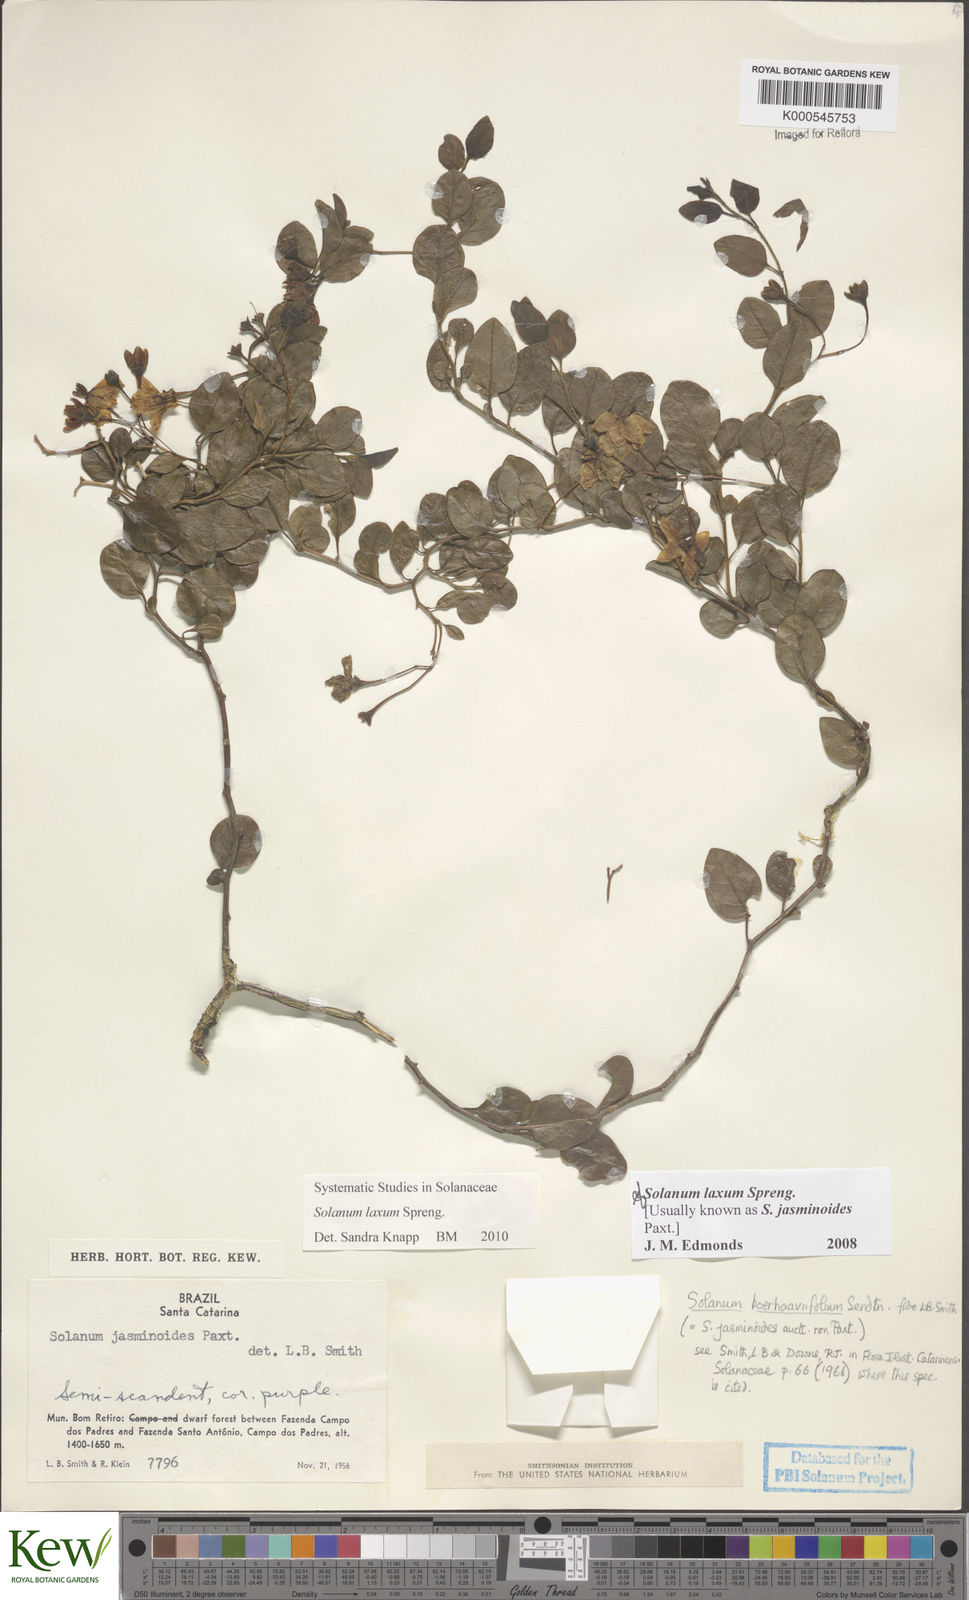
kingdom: Plantae
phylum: Tracheophyta
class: Magnoliopsida
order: Solanales
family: Solanaceae
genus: Solanum
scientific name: Solanum laxum
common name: Nightshade
